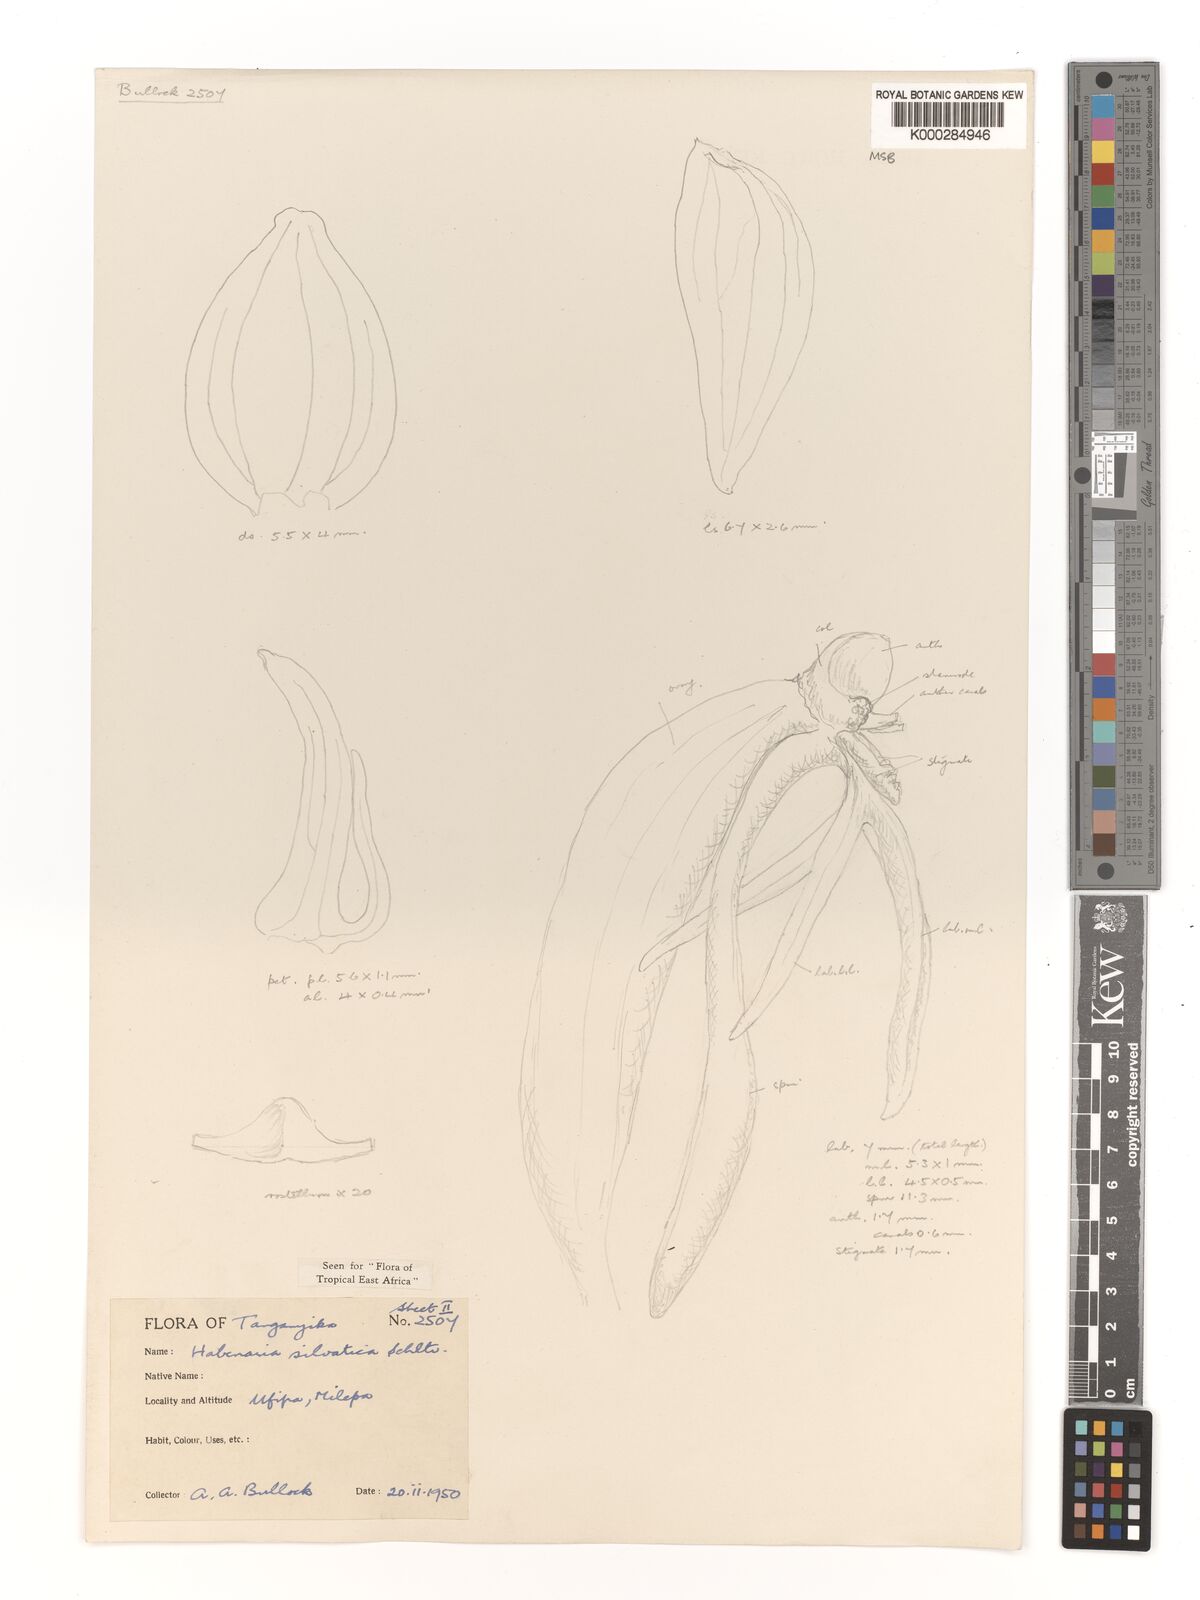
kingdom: Plantae
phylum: Tracheophyta
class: Liliopsida
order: Asparagales
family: Orchidaceae
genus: Habenaria
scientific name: Habenaria silvatica
